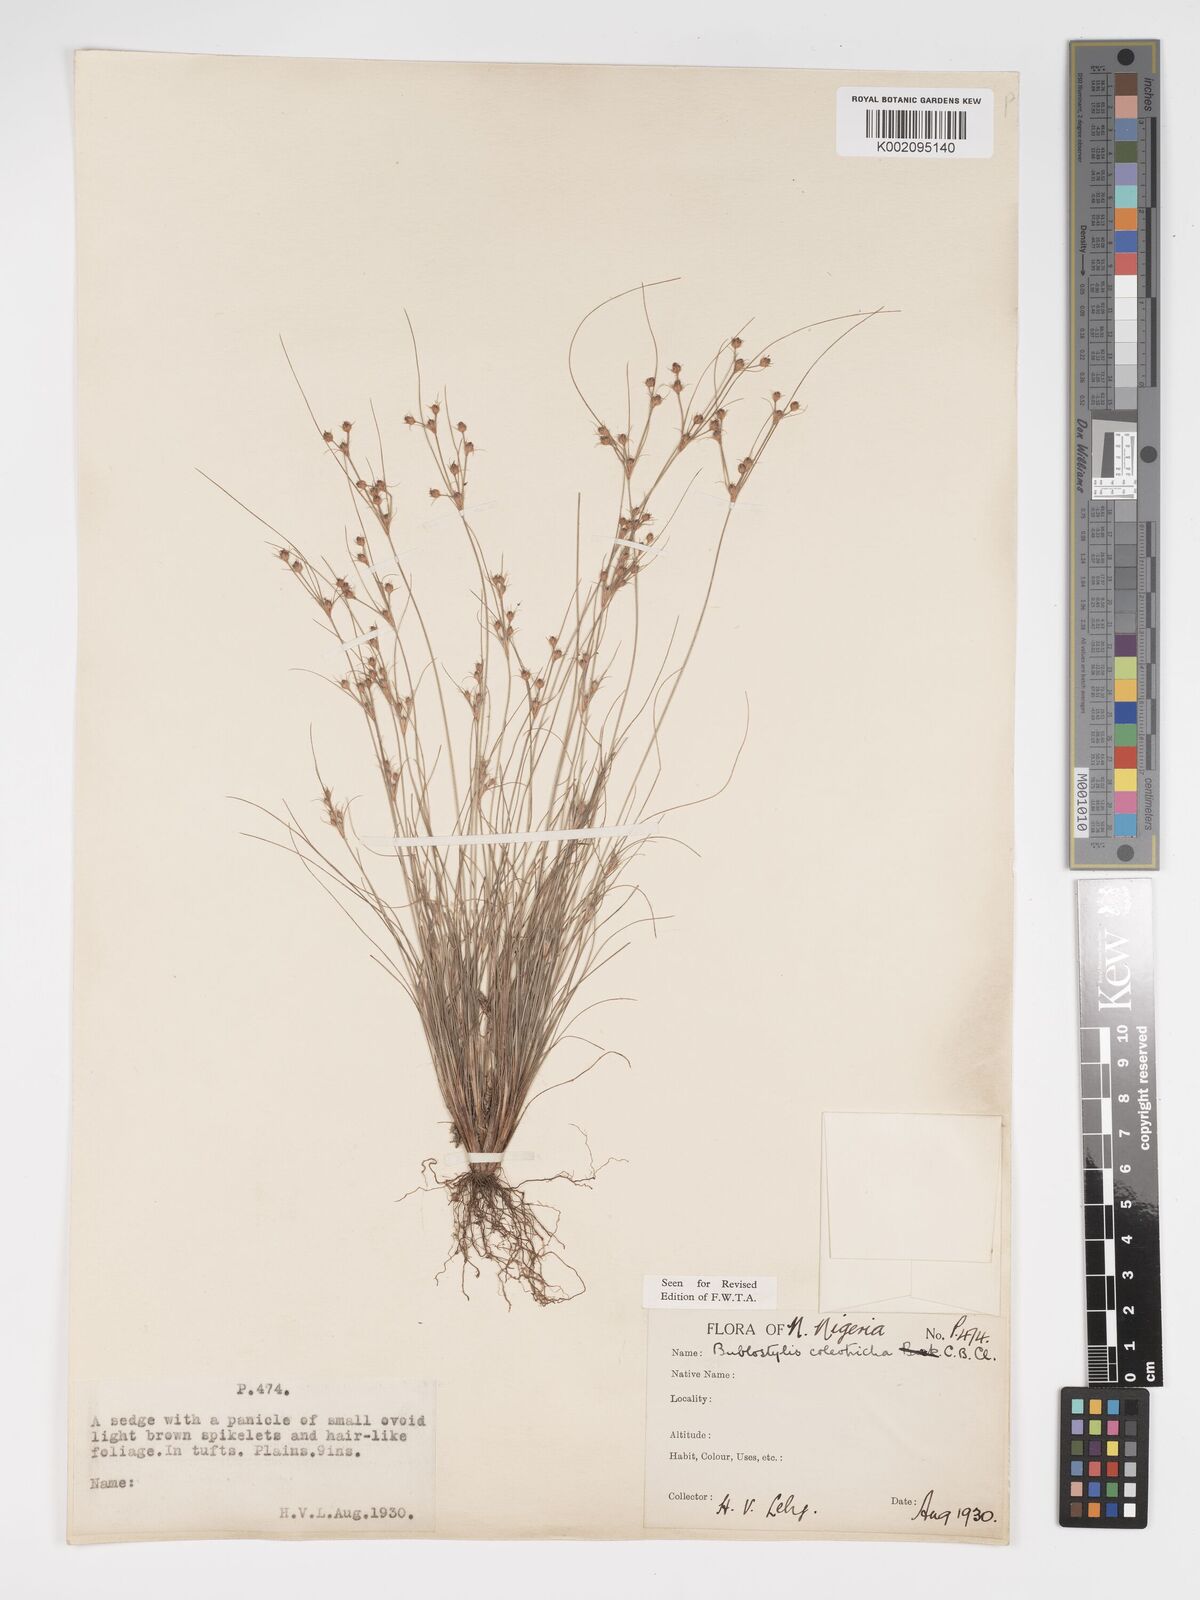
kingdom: Plantae
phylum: Tracheophyta
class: Liliopsida
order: Poales
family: Cyperaceae
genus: Bulbostylis
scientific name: Bulbostylis coleotricha
